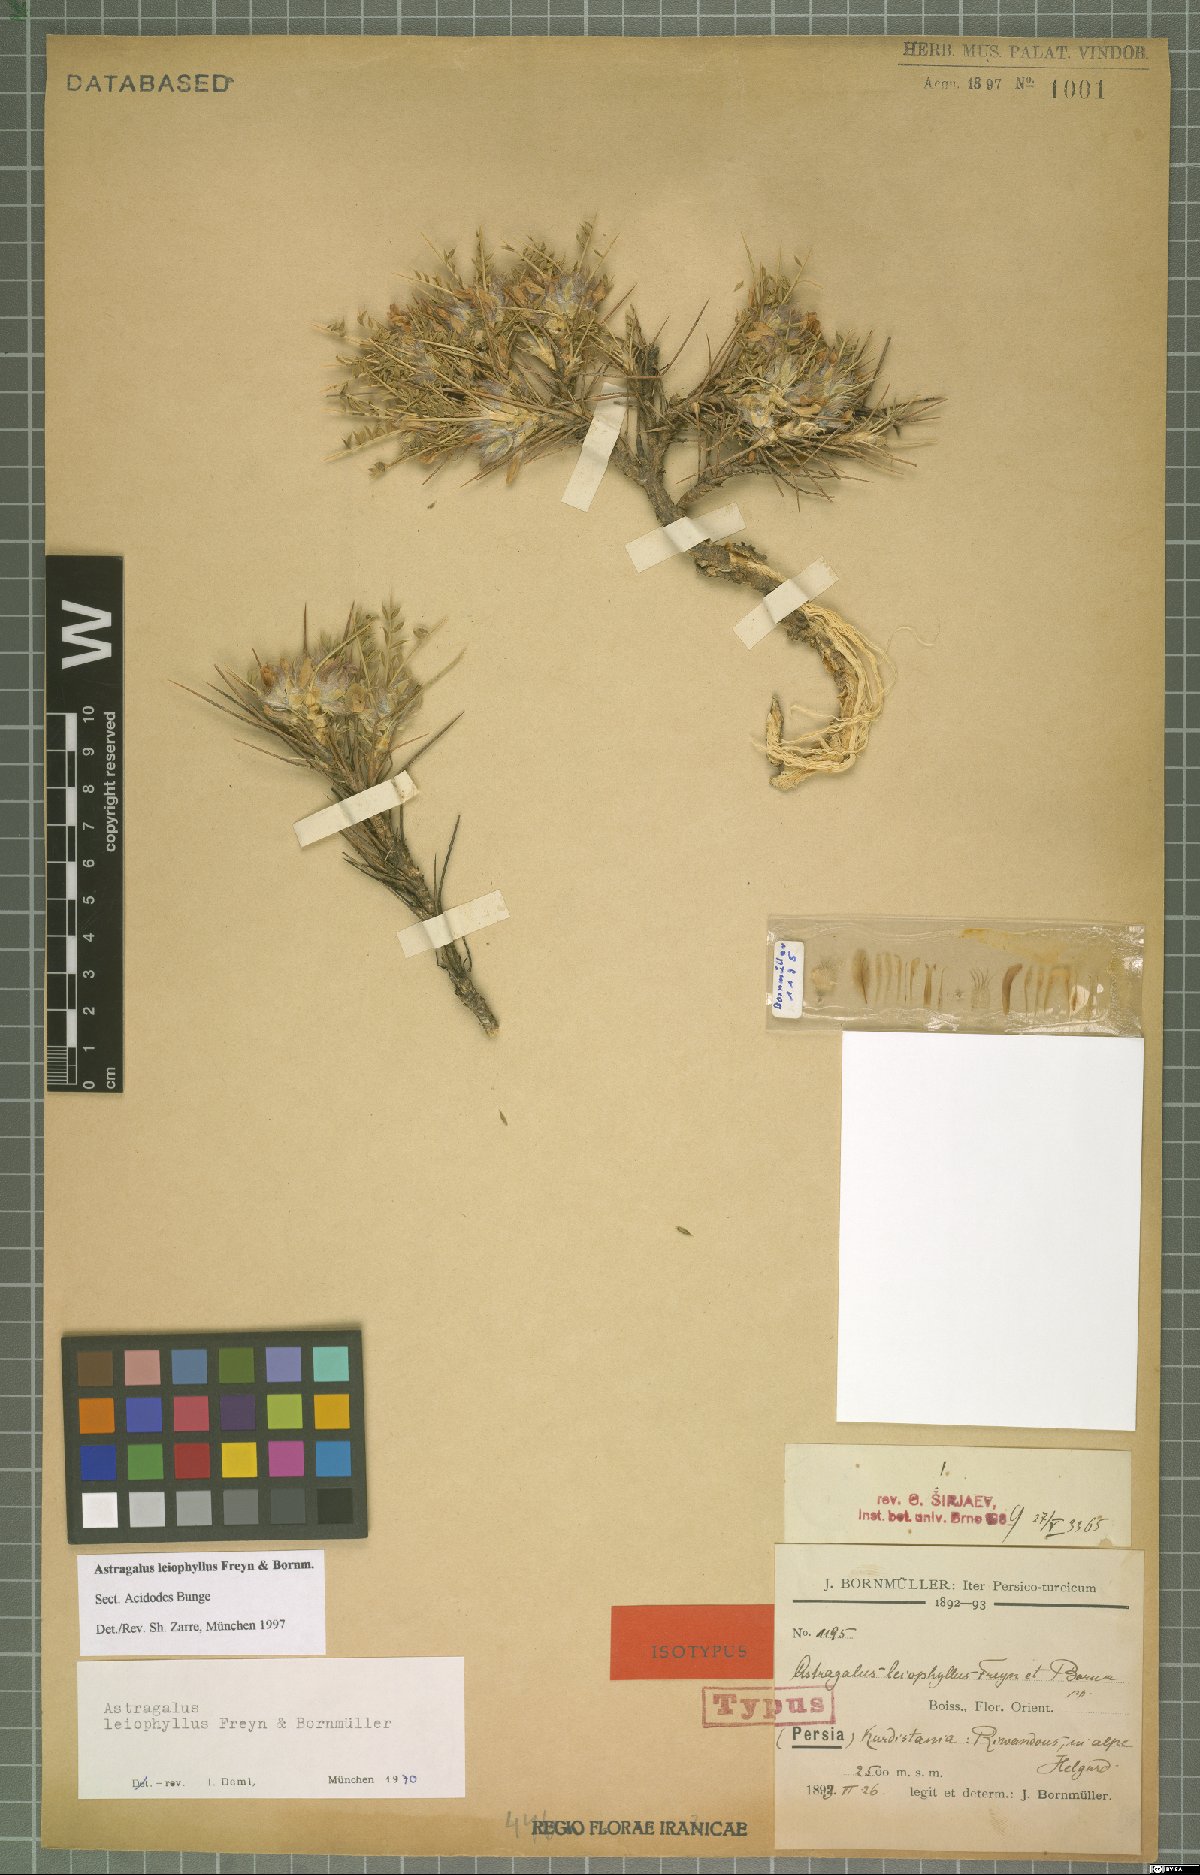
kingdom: Plantae
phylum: Tracheophyta
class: Magnoliopsida
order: Fabales
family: Fabaceae
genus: Astragalus
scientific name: Astragalus leiophyllus
